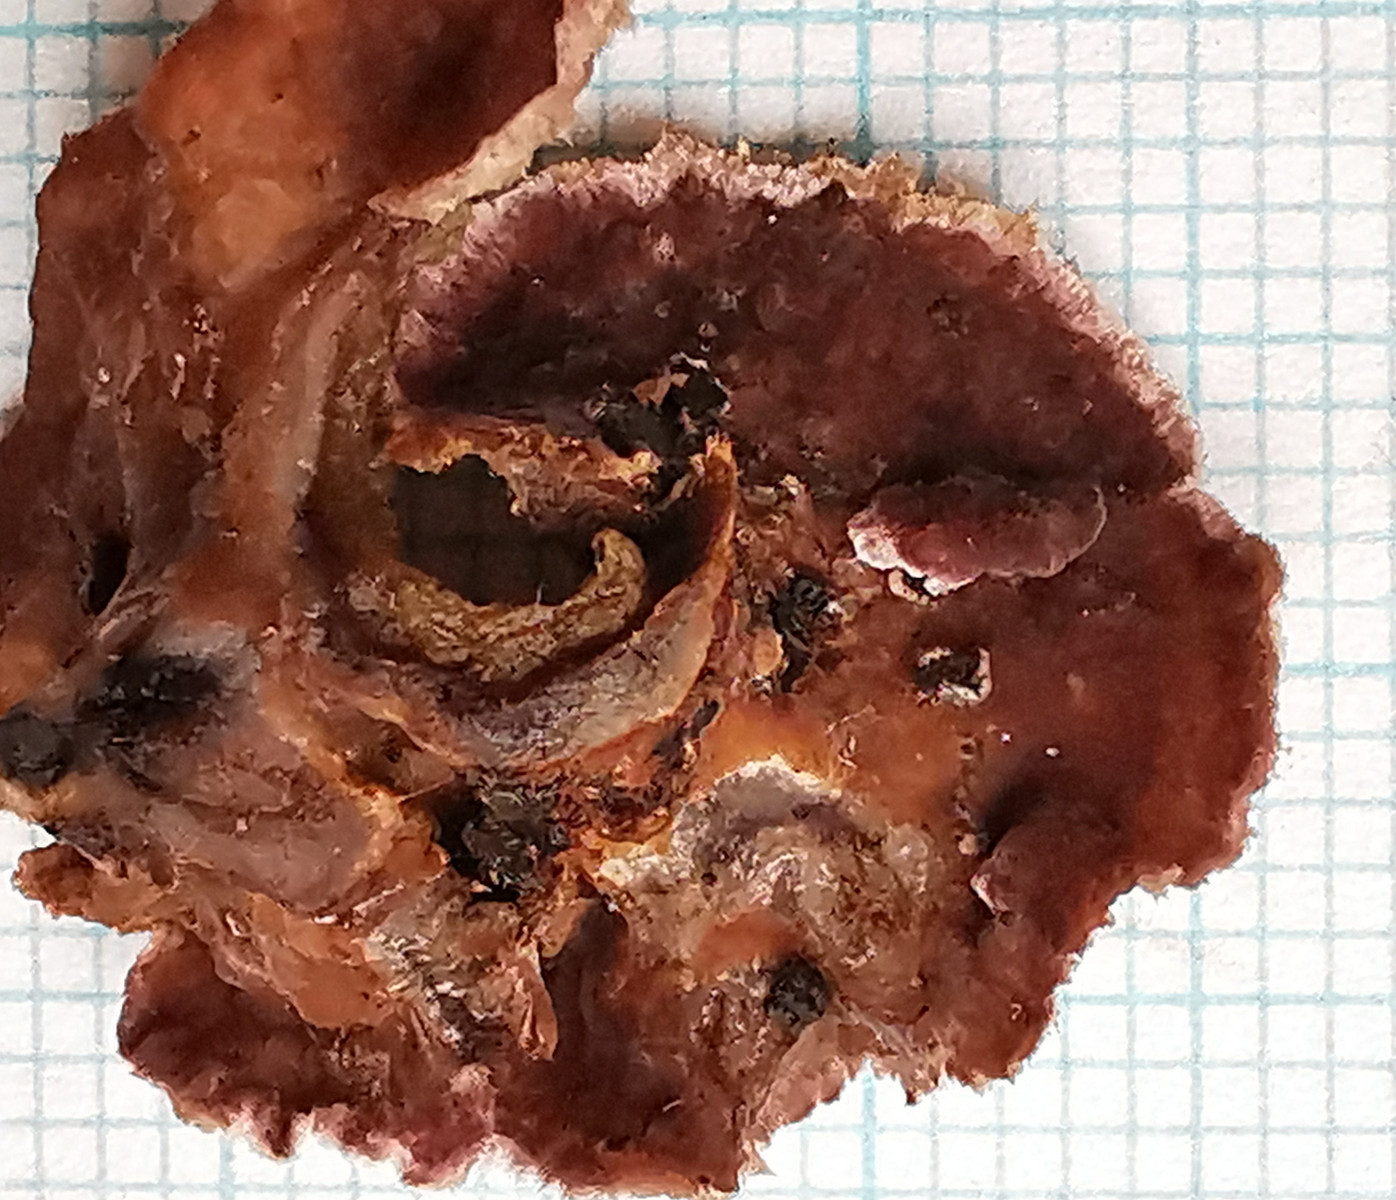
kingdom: Fungi
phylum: Basidiomycota
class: Agaricomycetes
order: Agaricales
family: Cyphellaceae
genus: Chondrostereum
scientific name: Chondrostereum purpureum
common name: purpurlædersvamp
